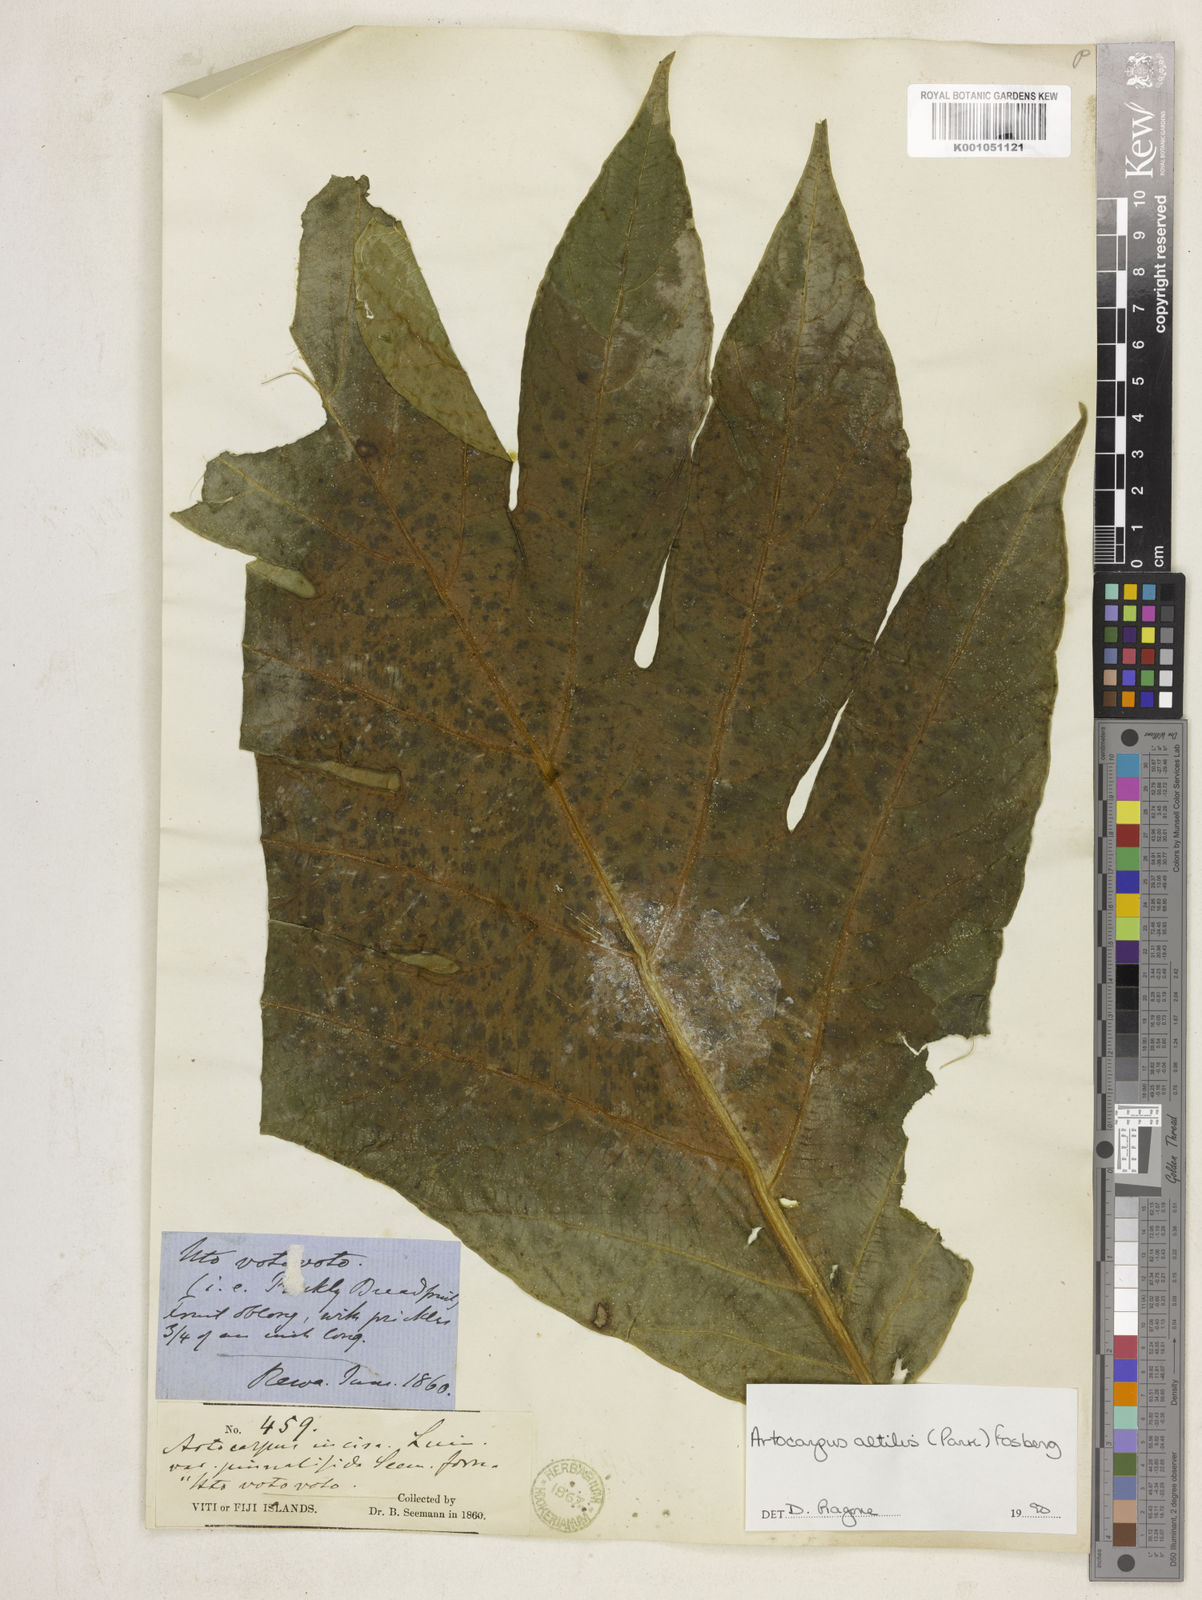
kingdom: Plantae
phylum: Tracheophyta
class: Magnoliopsida
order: Rosales
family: Moraceae
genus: Artocarpus
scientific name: Artocarpus altilis
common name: Breadfruit
